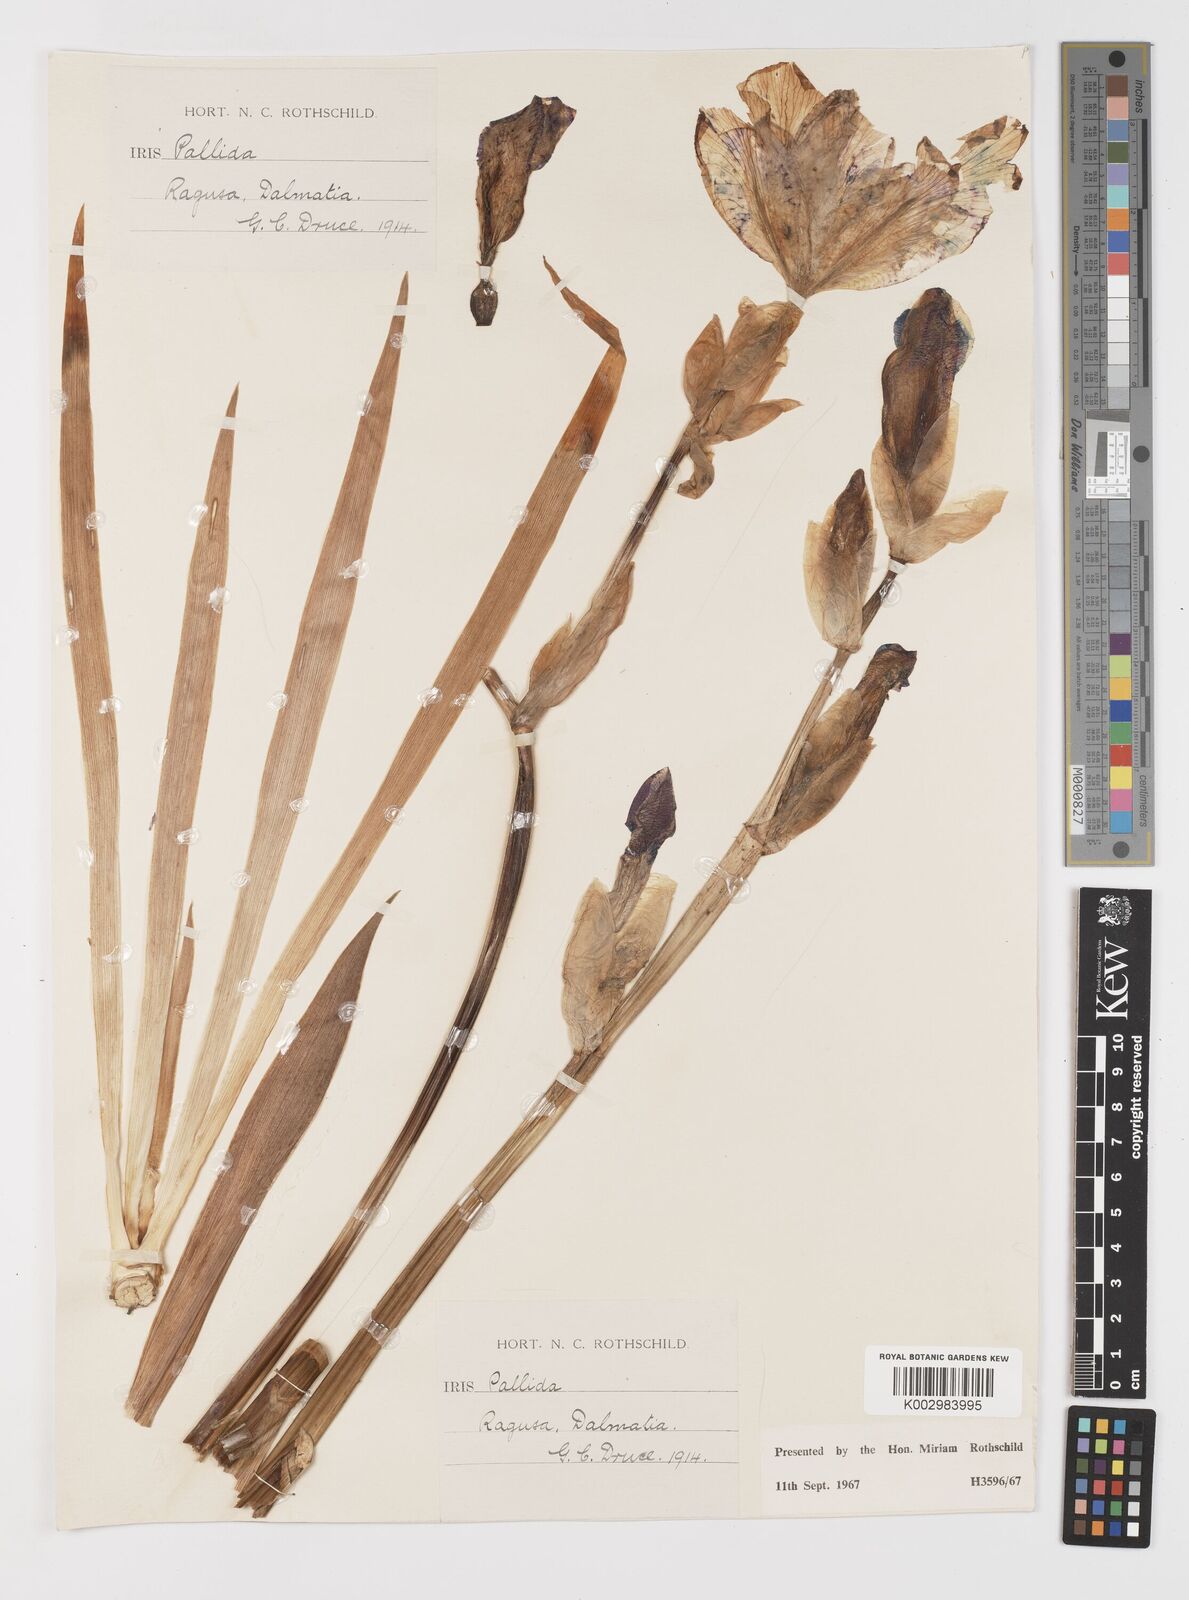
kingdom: Plantae
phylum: Tracheophyta
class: Liliopsida
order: Asparagales
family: Iridaceae
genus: Iris
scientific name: Iris halophila
